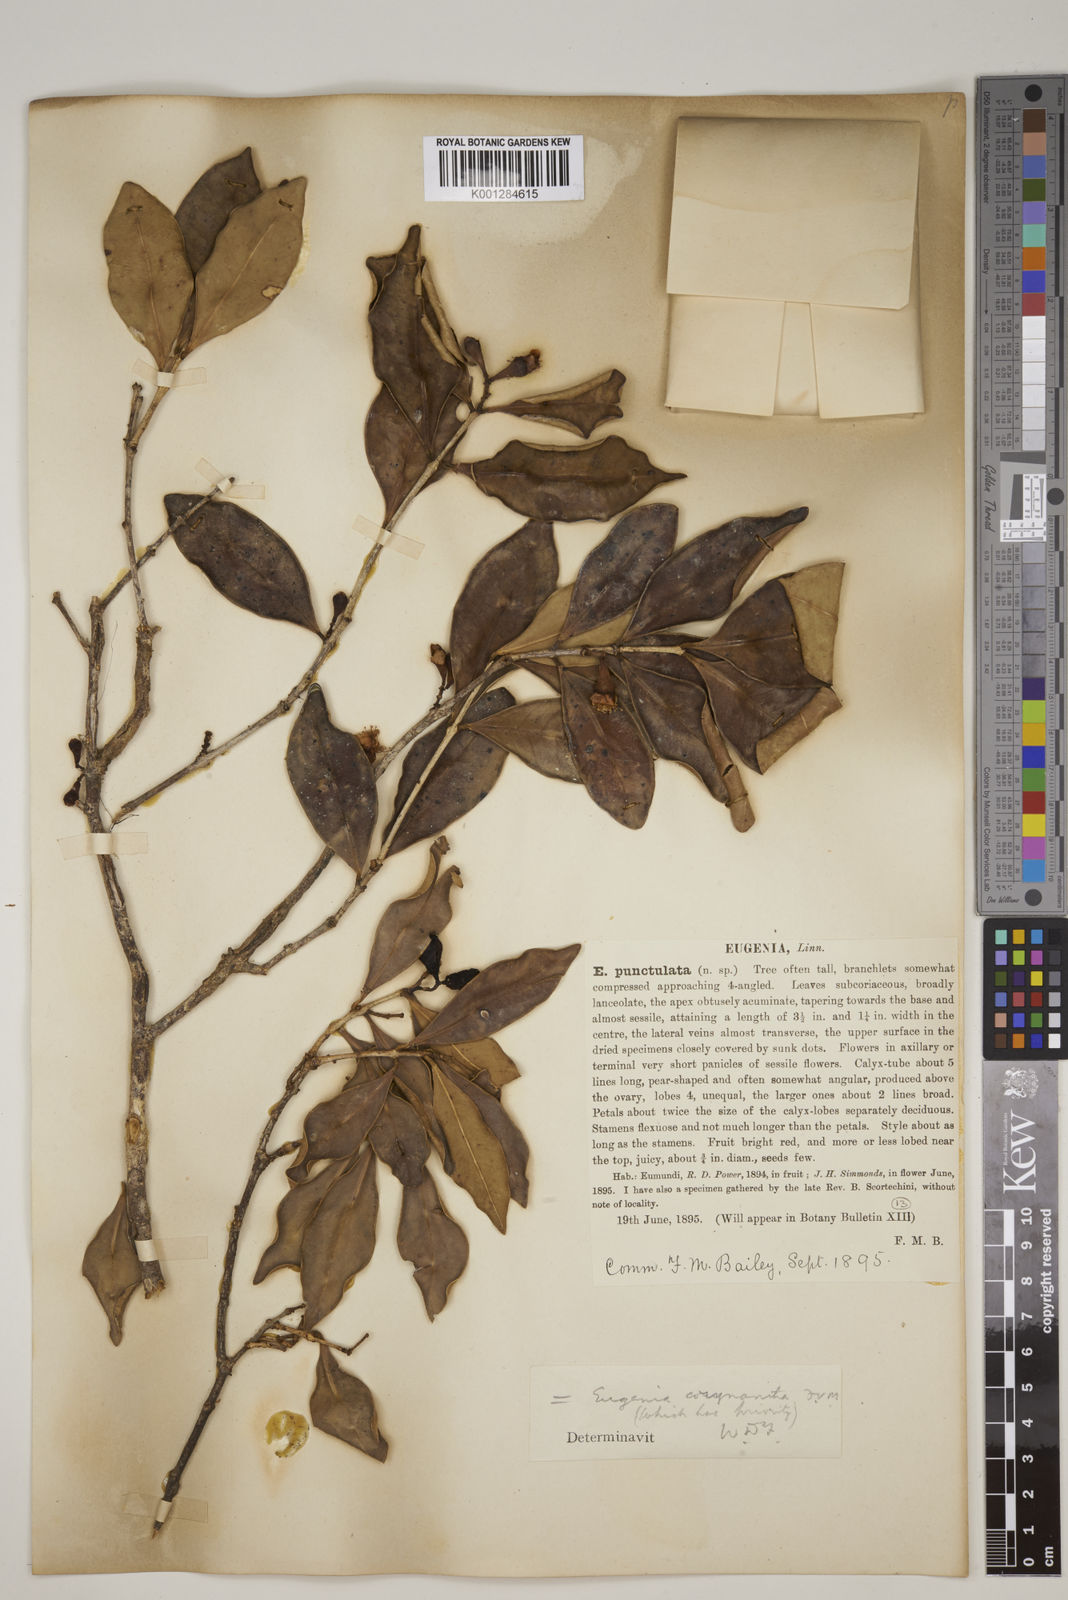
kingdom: Plantae
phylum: Tracheophyta
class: Magnoliopsida
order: Myrtales
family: Myrtaceae
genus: Syzygium
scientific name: Syzygium corynanthum
